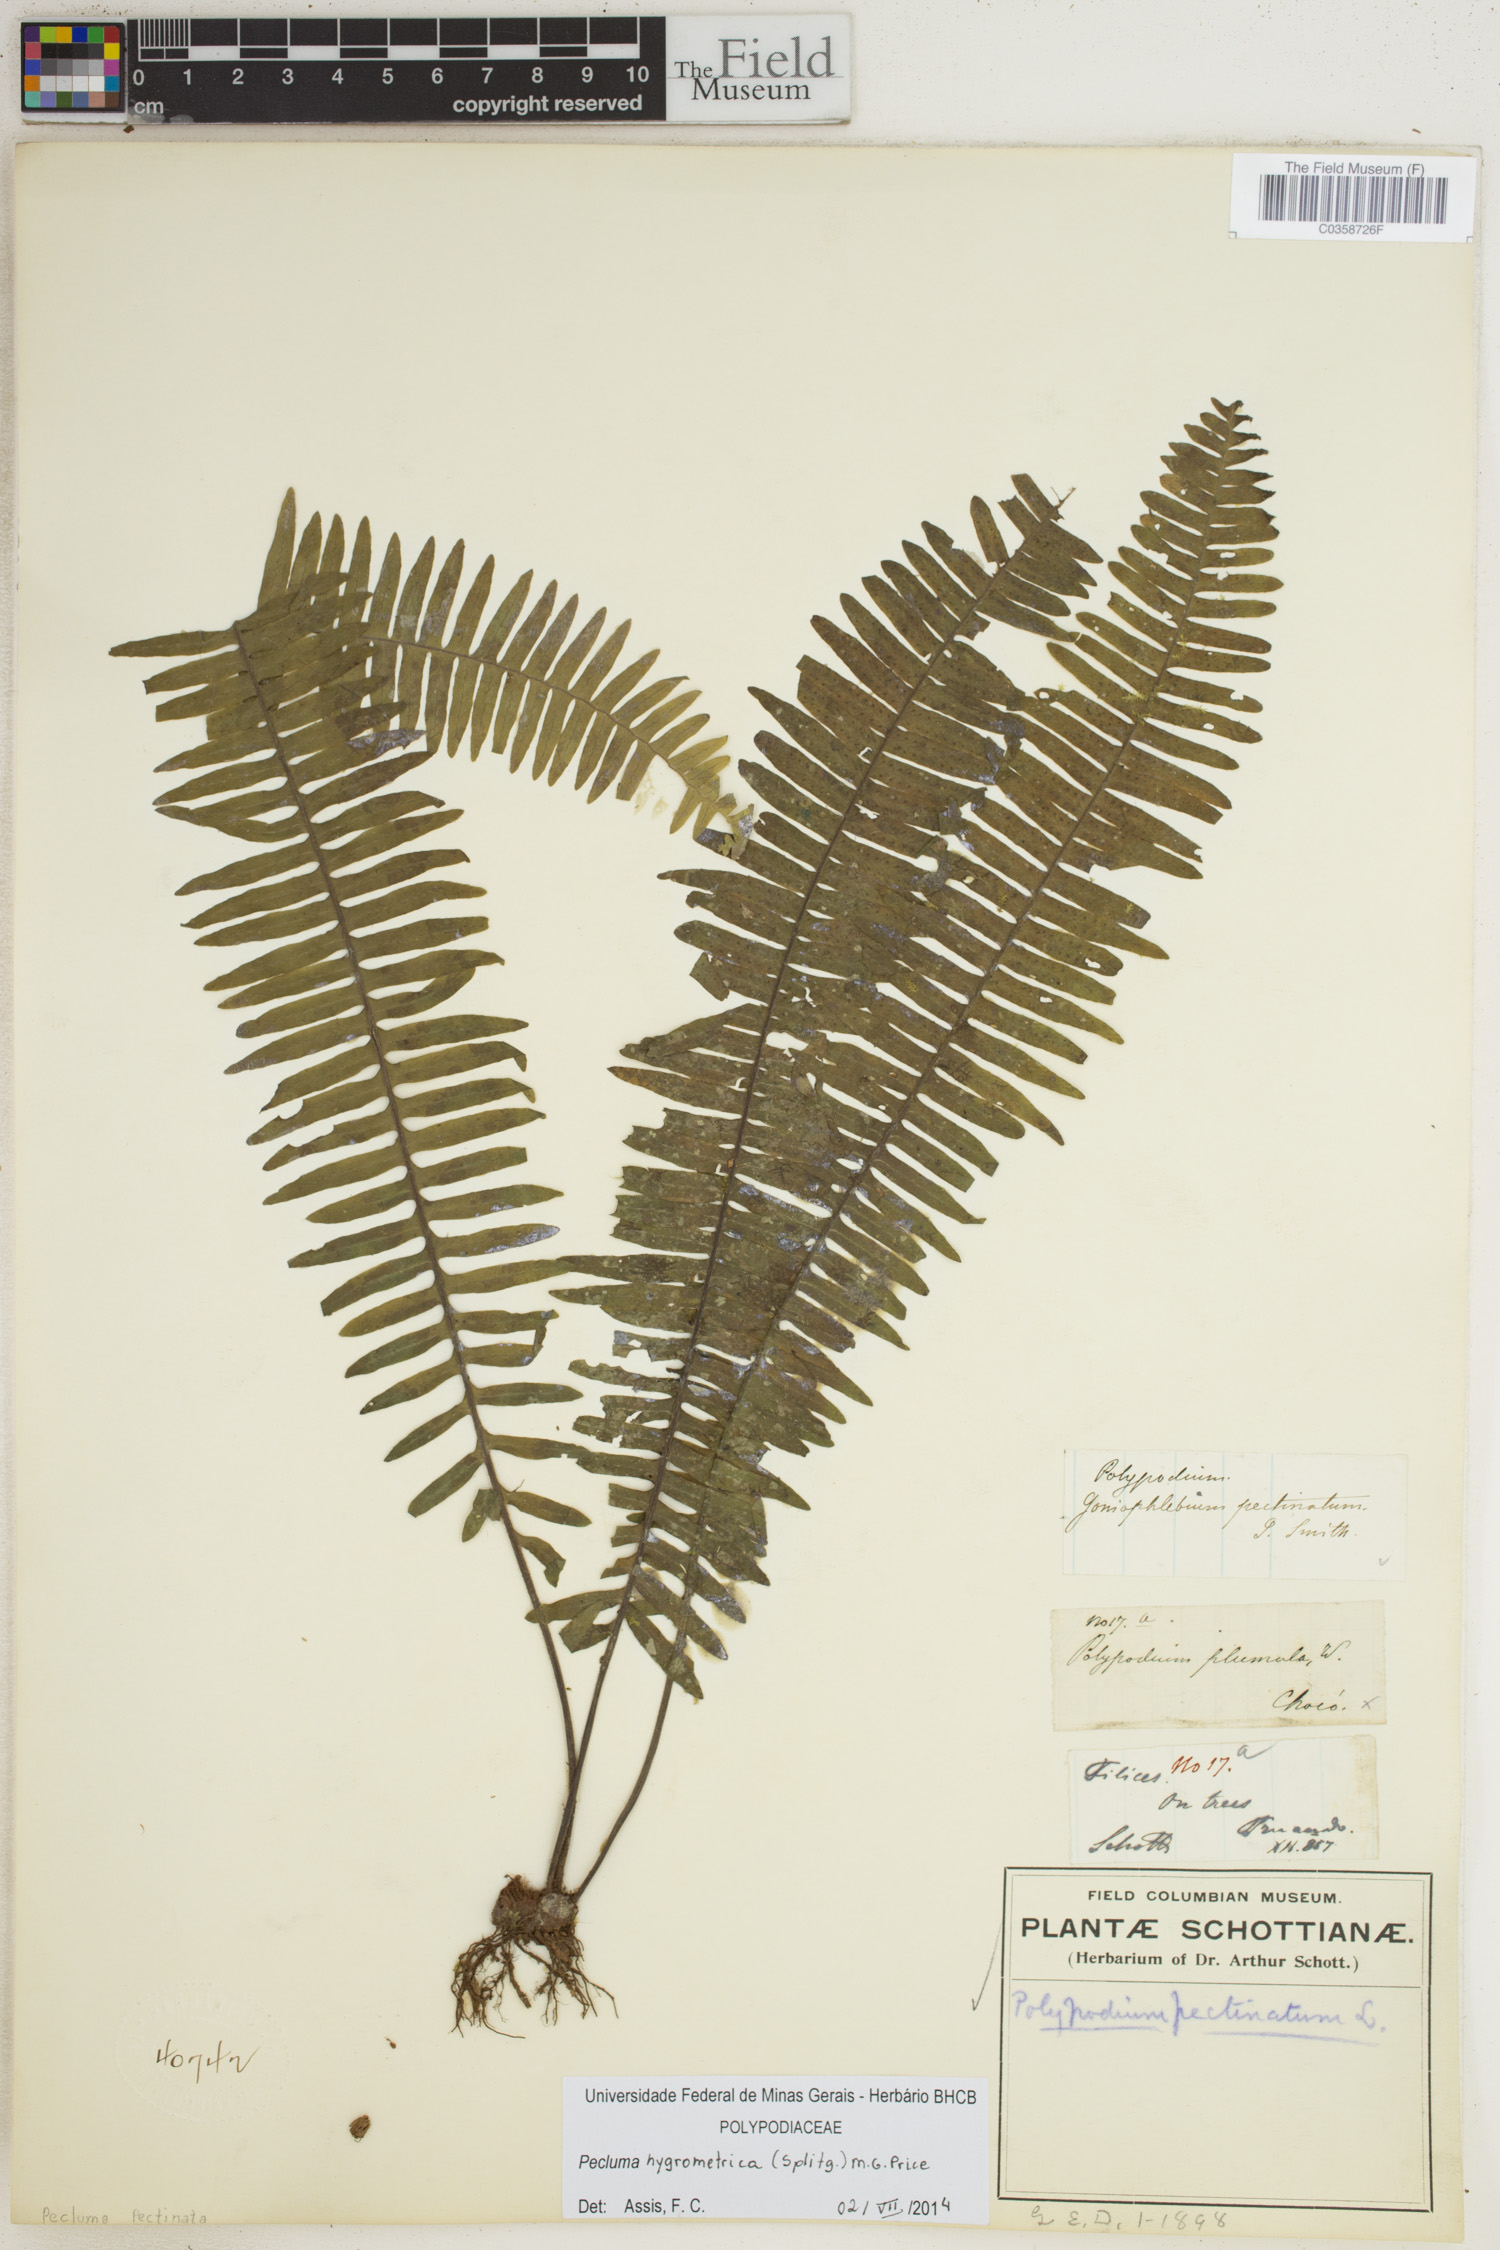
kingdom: Plantae
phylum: Tracheophyta
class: Polypodiopsida
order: Polypodiales
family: Polypodiaceae
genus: Pecluma
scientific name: Pecluma hygrometrica
